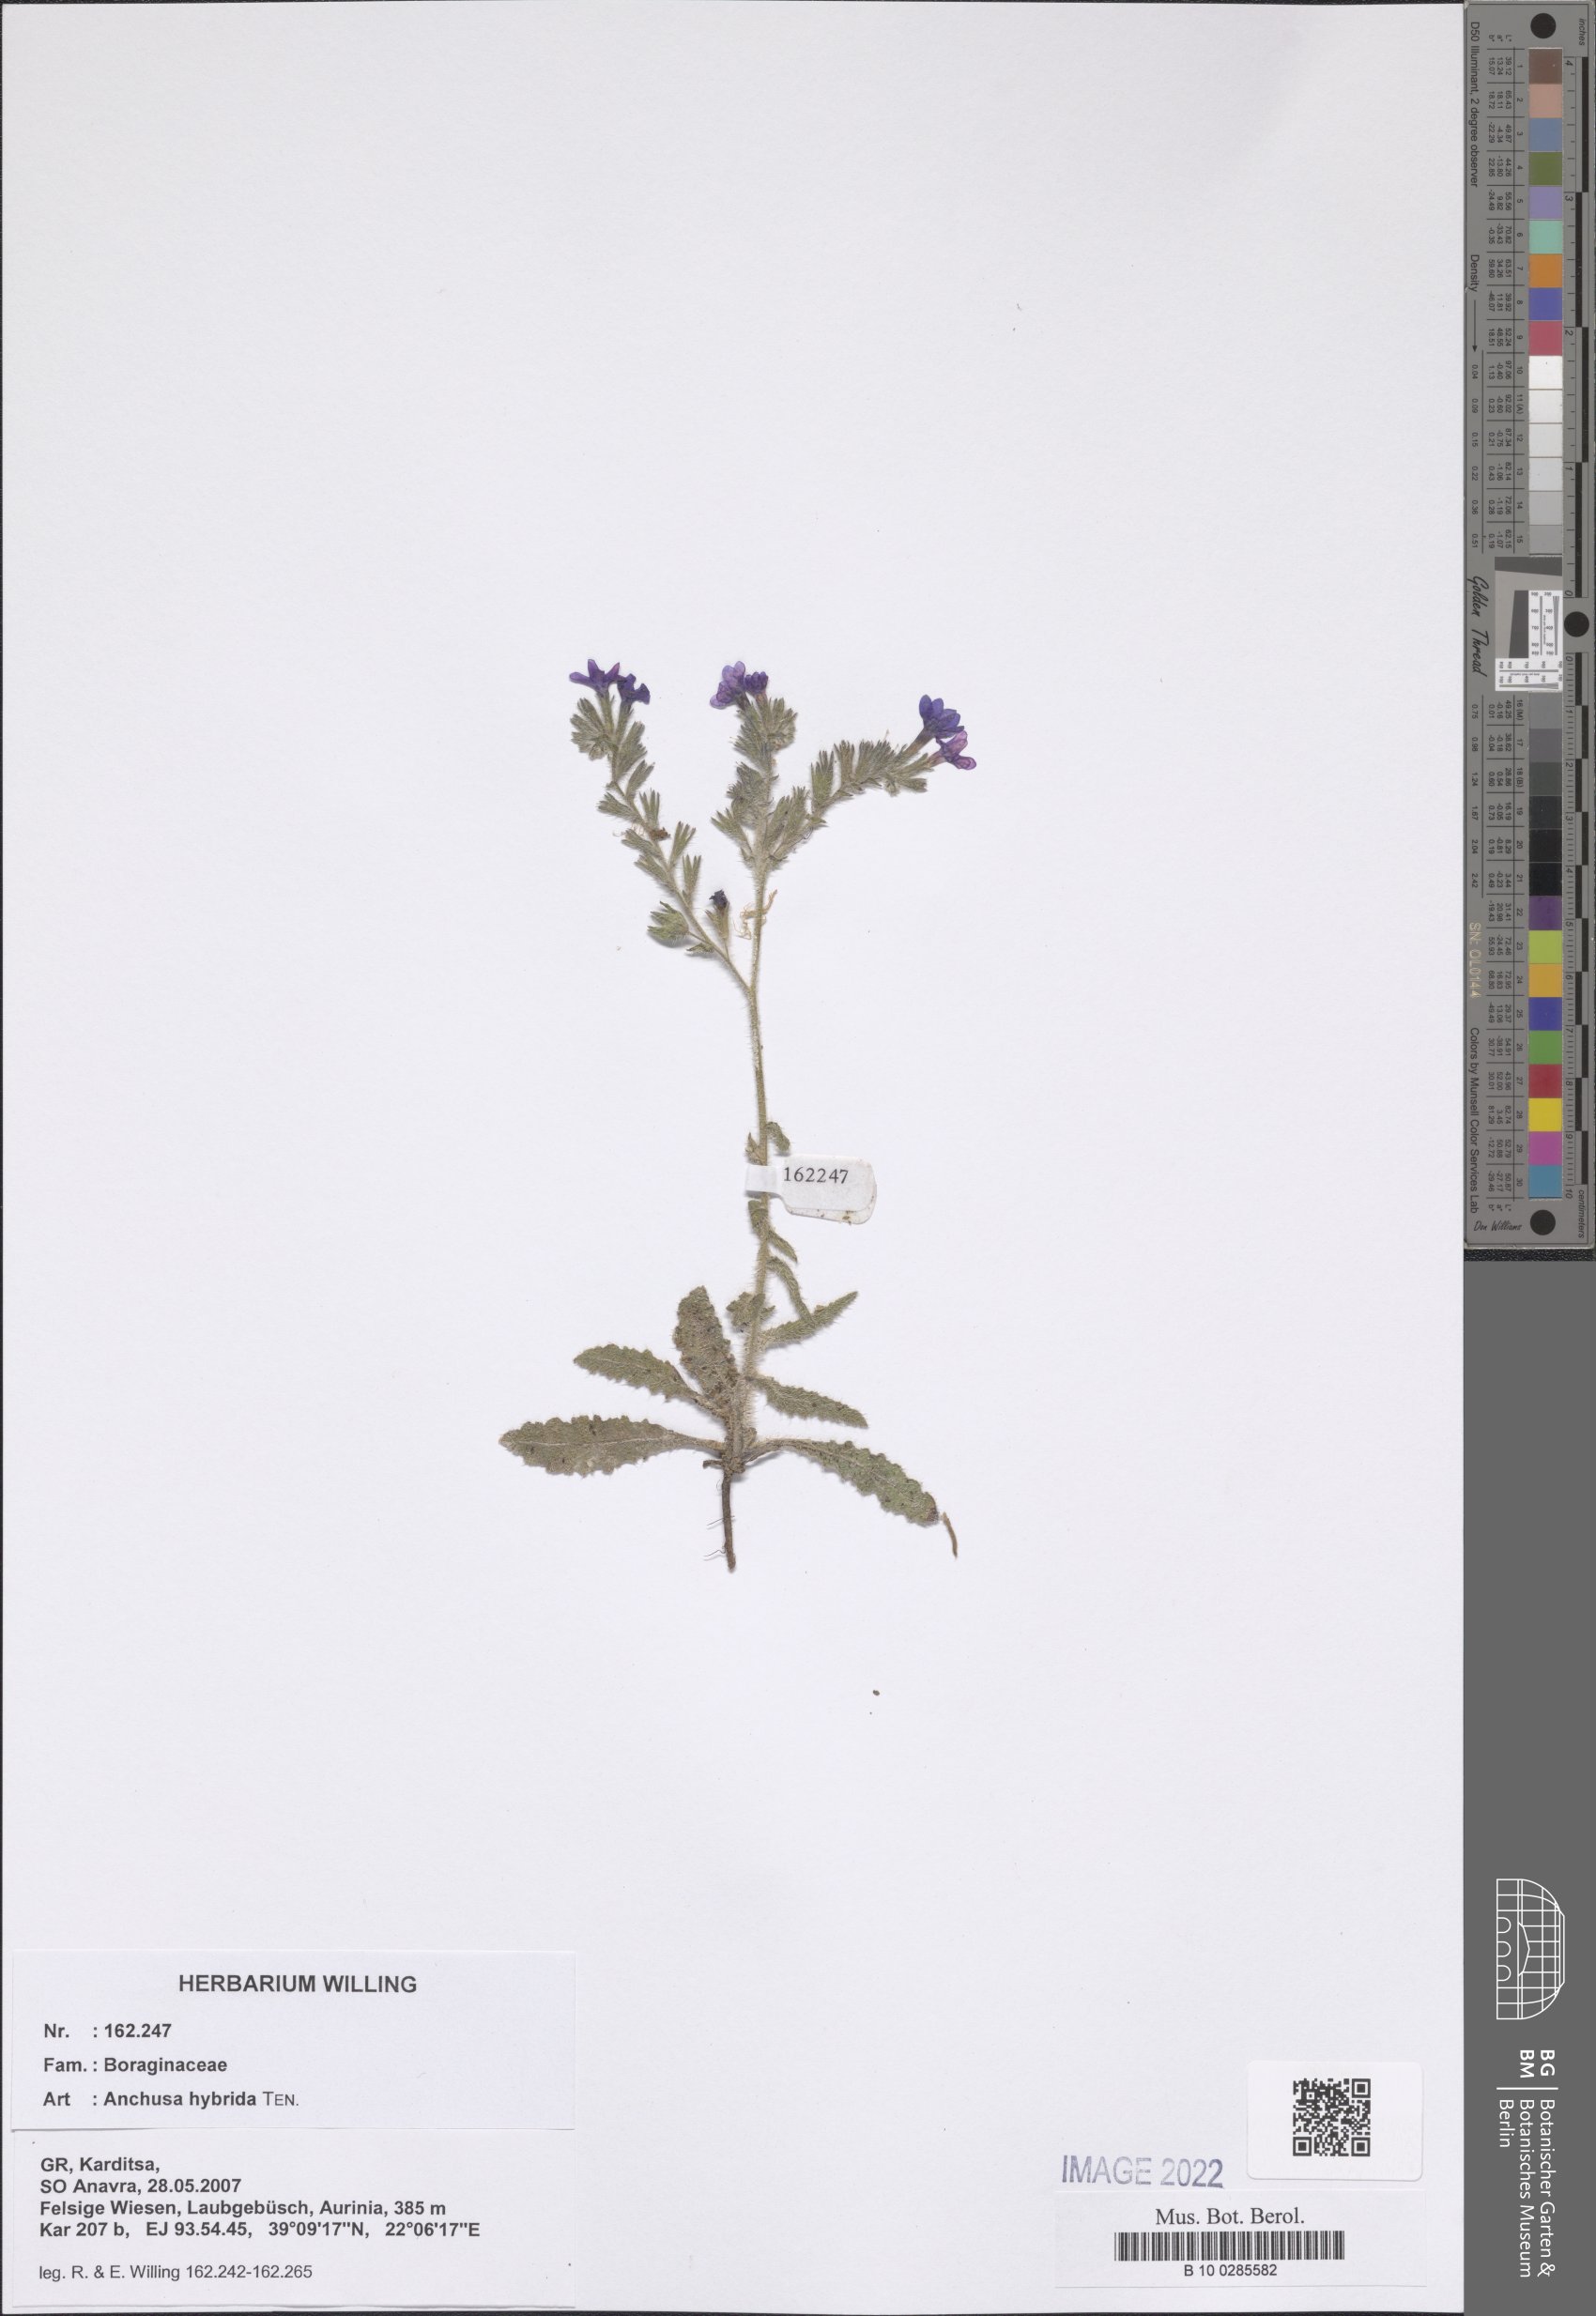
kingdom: Plantae
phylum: Tracheophyta
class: Magnoliopsida
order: Boraginales
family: Boraginaceae
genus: Anchusa
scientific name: Anchusa hybrida
